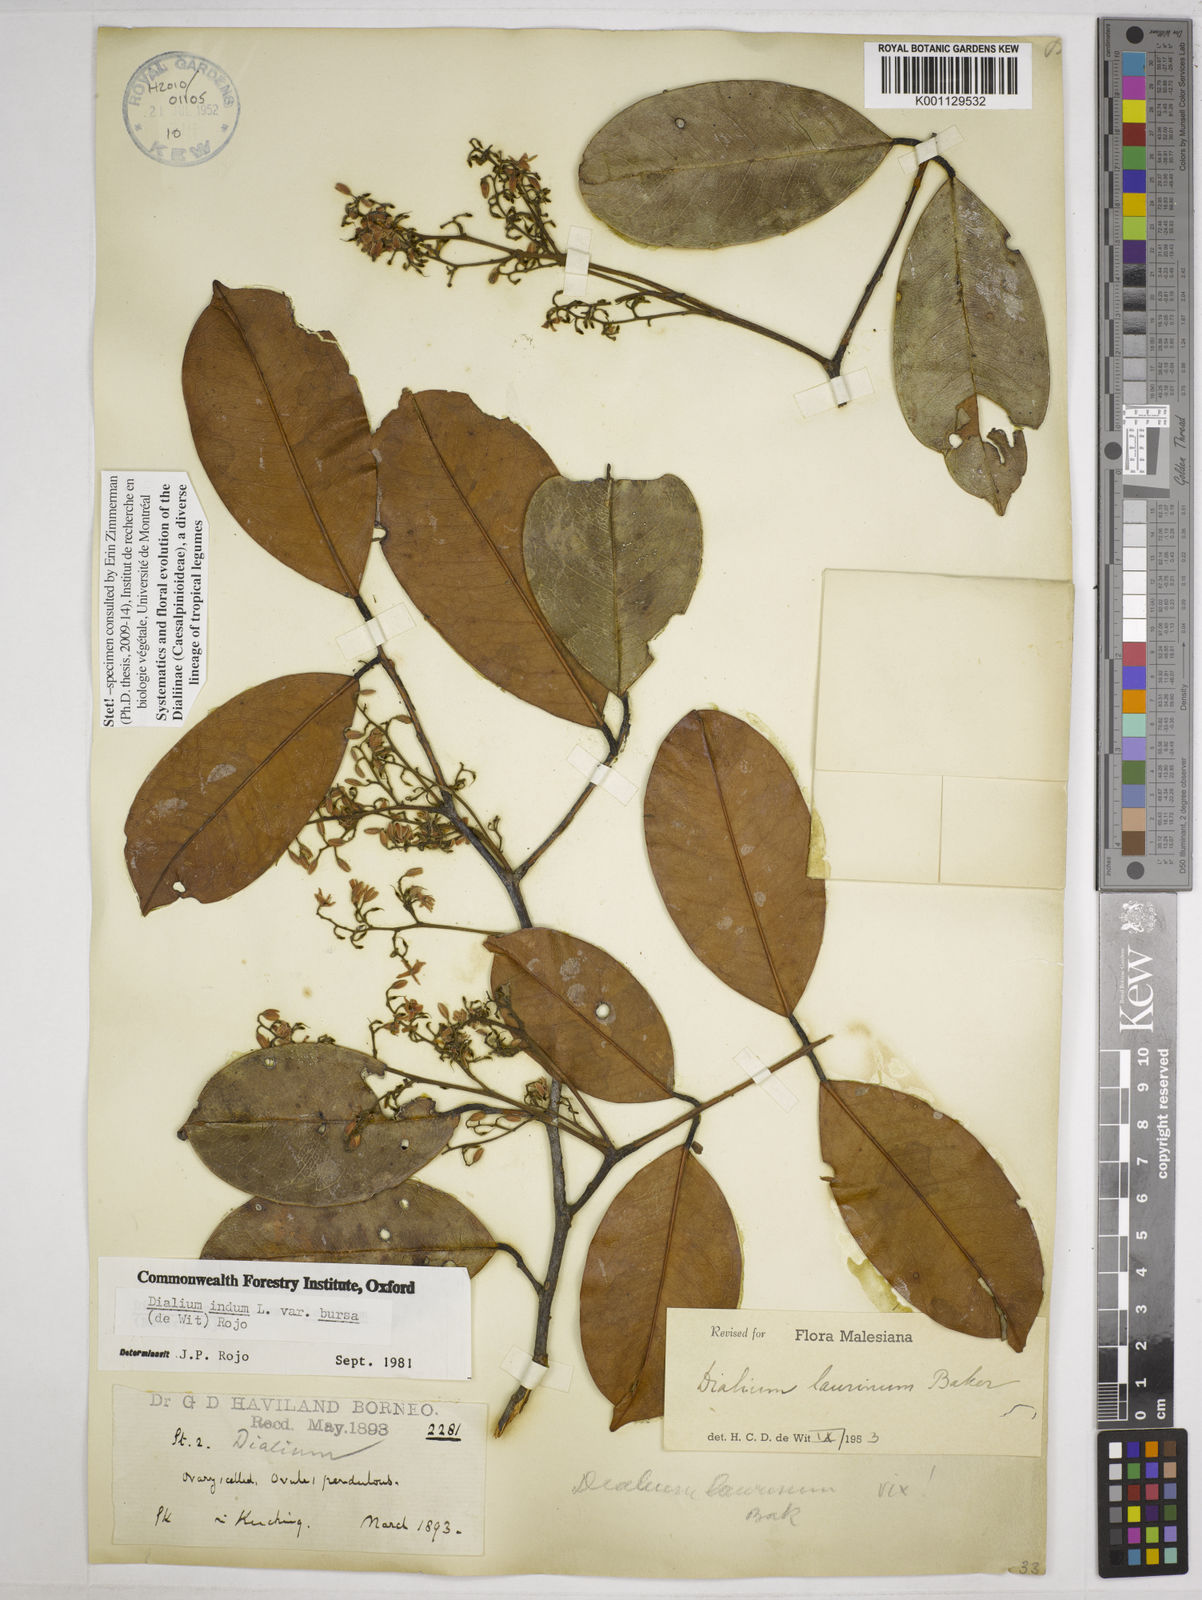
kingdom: Plantae
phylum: Tracheophyta
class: Magnoliopsida
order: Fabales
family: Fabaceae
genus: Dialium
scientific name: Dialium indum
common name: Tamarind-plum
